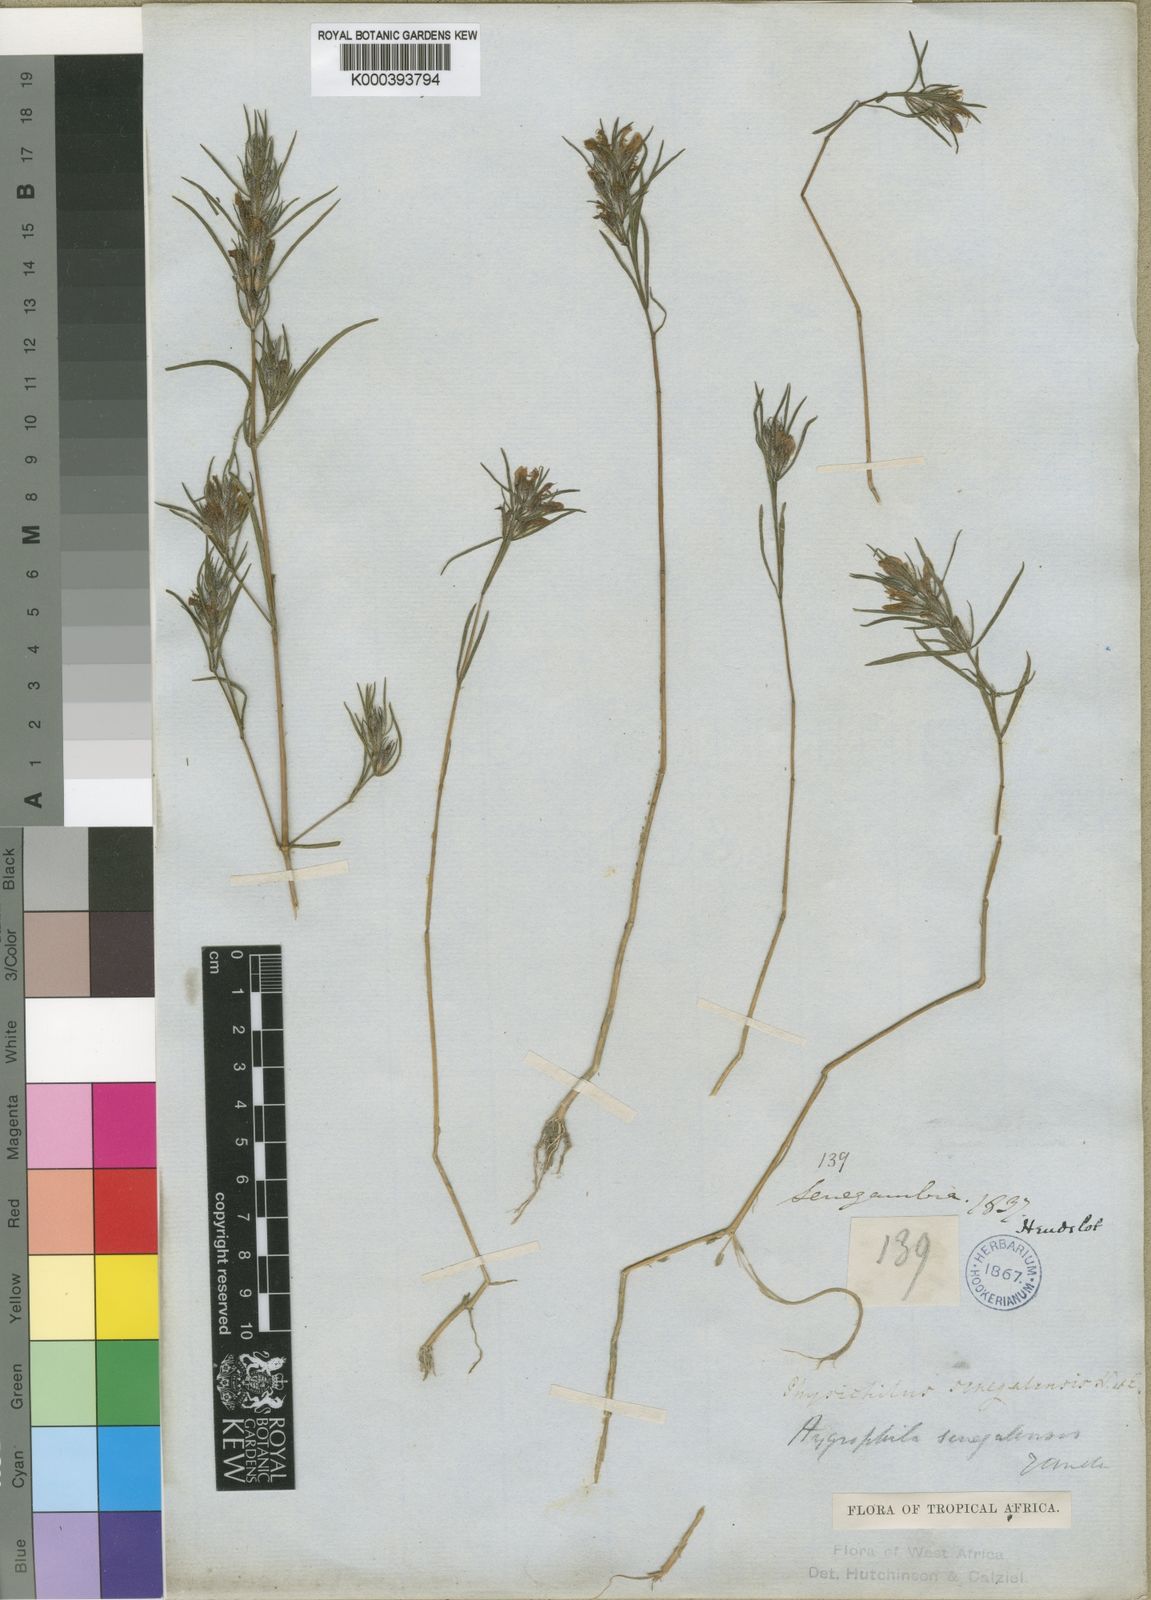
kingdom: Plantae
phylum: Tracheophyta
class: Magnoliopsida
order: Lamiales
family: Acanthaceae
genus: Hygrophila
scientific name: Hygrophila micrantha
